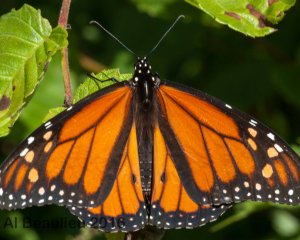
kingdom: Animalia
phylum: Arthropoda
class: Insecta
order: Lepidoptera
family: Nymphalidae
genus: Danaus
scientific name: Danaus plexippus
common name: Monarch
